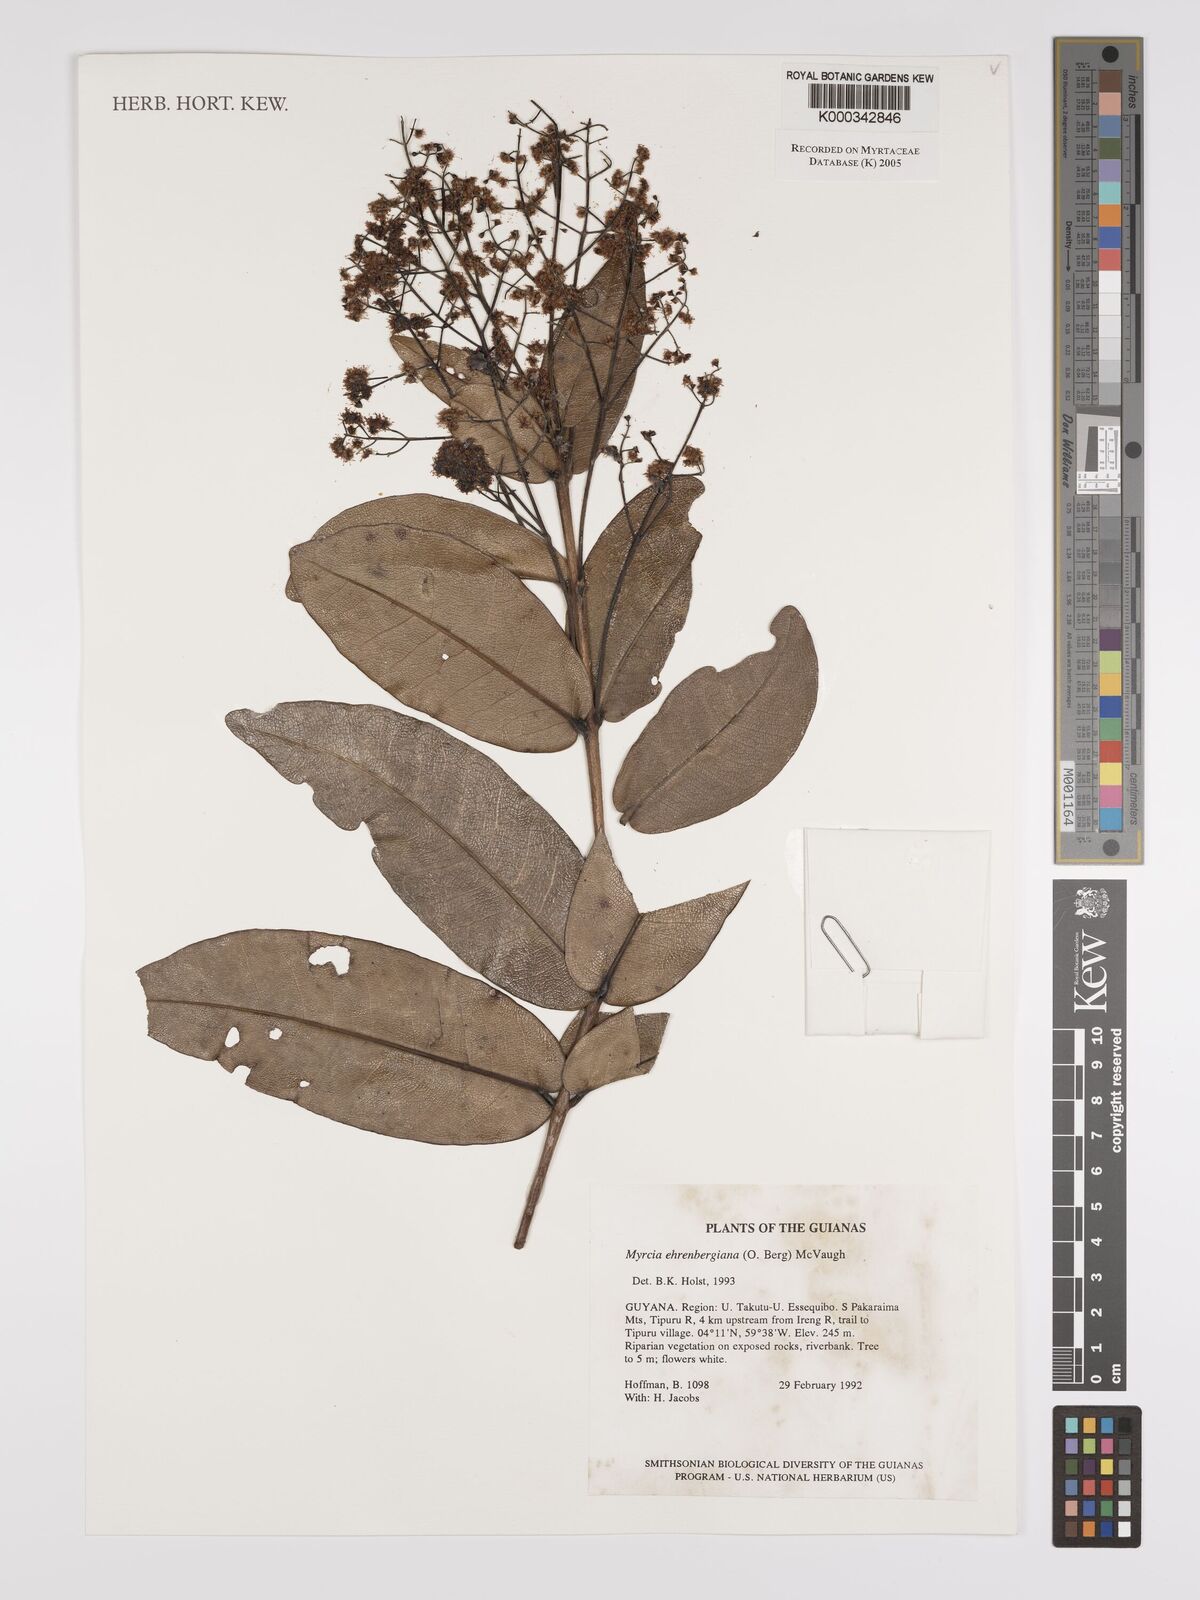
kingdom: Plantae
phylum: Tracheophyta
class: Magnoliopsida
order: Myrtales
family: Myrtaceae
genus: Myrcia
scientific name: Myrcia ehrenbergiana
